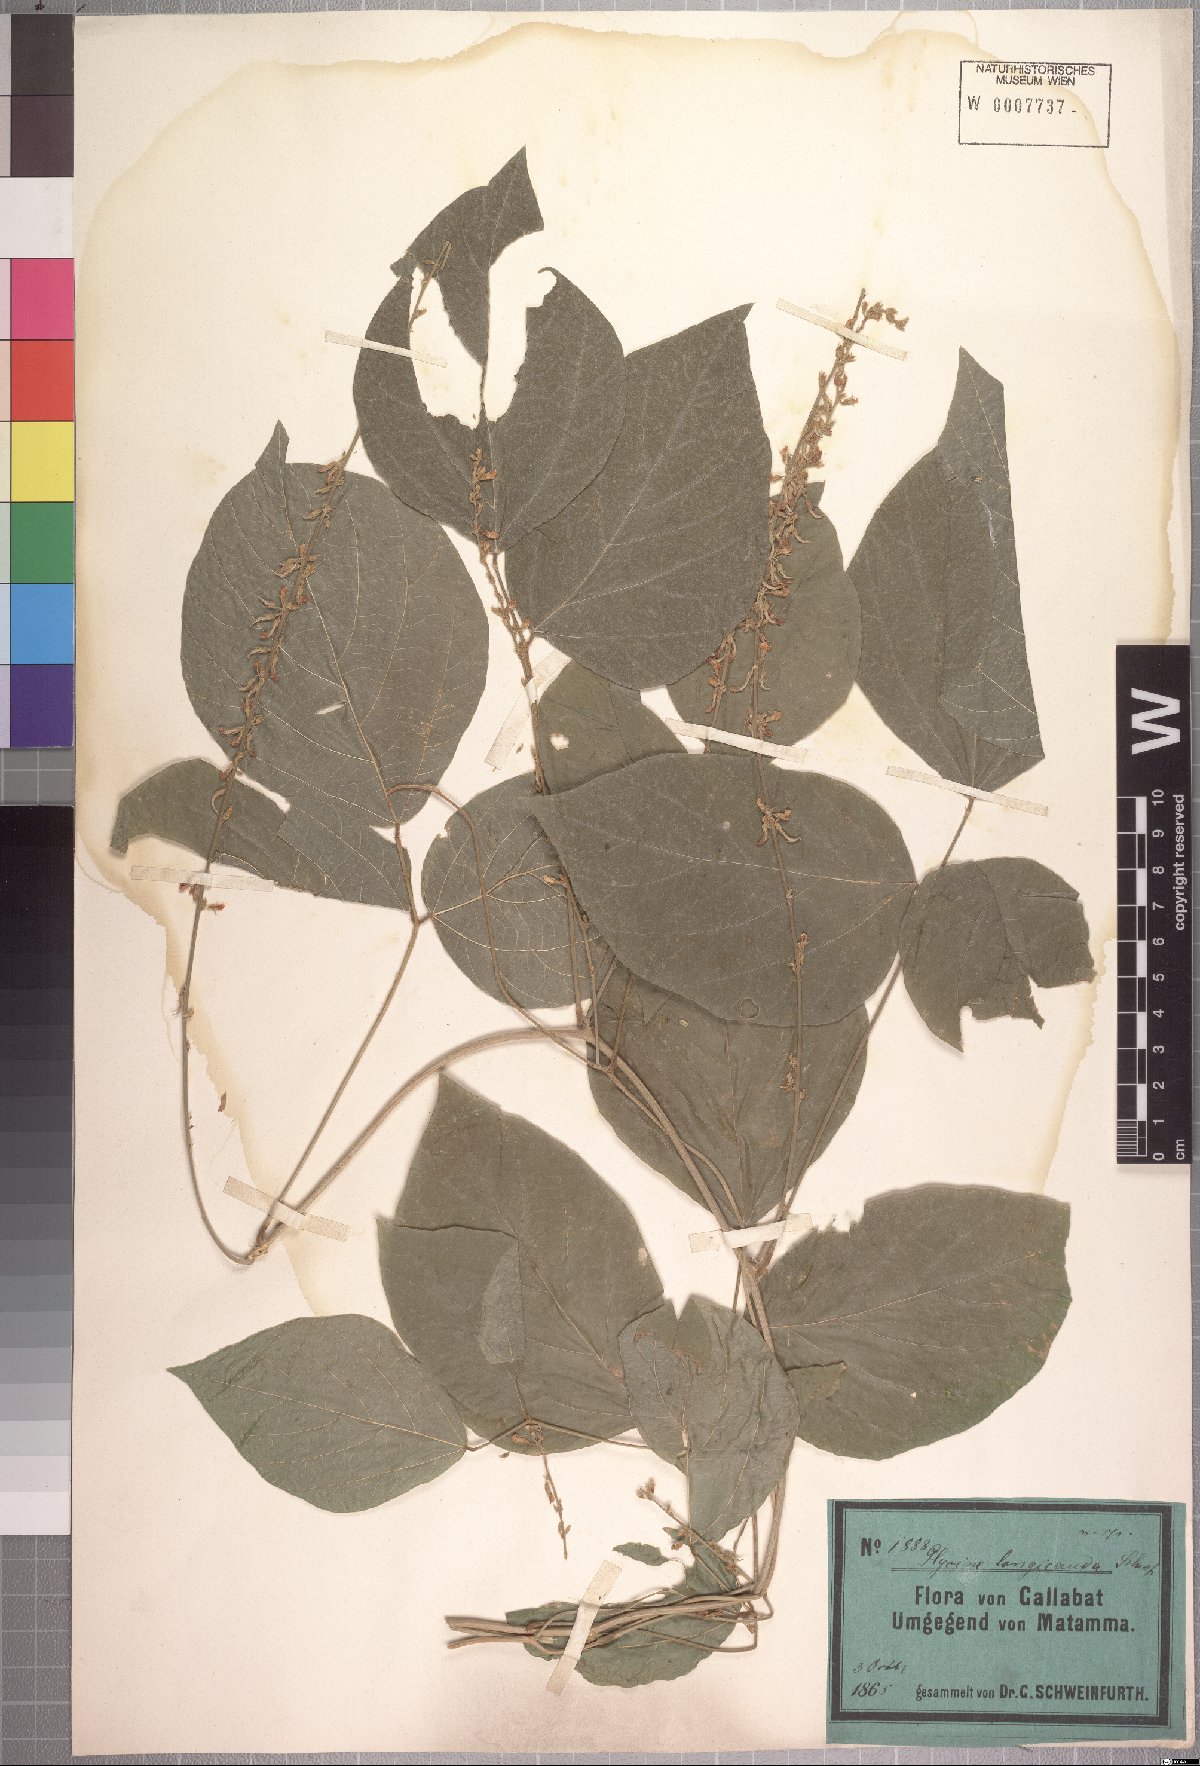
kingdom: Plantae
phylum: Tracheophyta
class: Magnoliopsida
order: Fabales
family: Fabaceae
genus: Neonotonia
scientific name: Neonotonia wightii
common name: Perennial soybean
